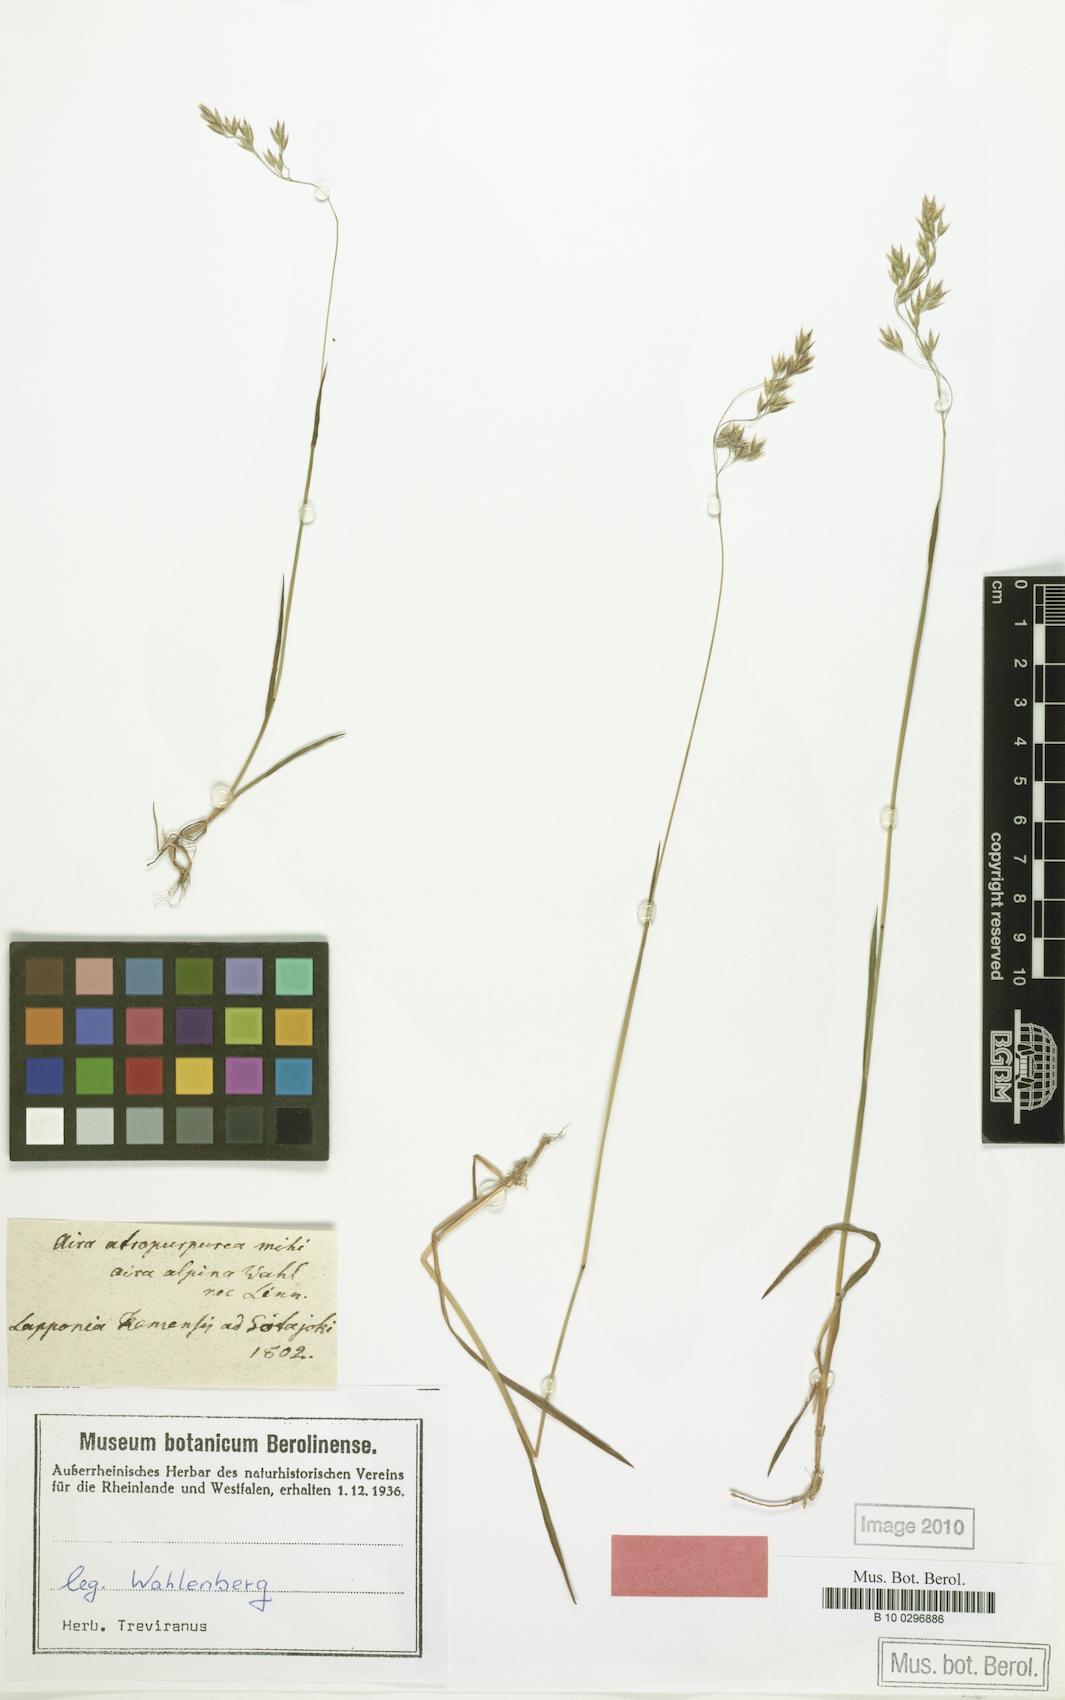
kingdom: Plantae
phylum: Tracheophyta
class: Liliopsida
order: Poales
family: Poaceae
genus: Vahlodea
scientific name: Vahlodea atropurpurea
